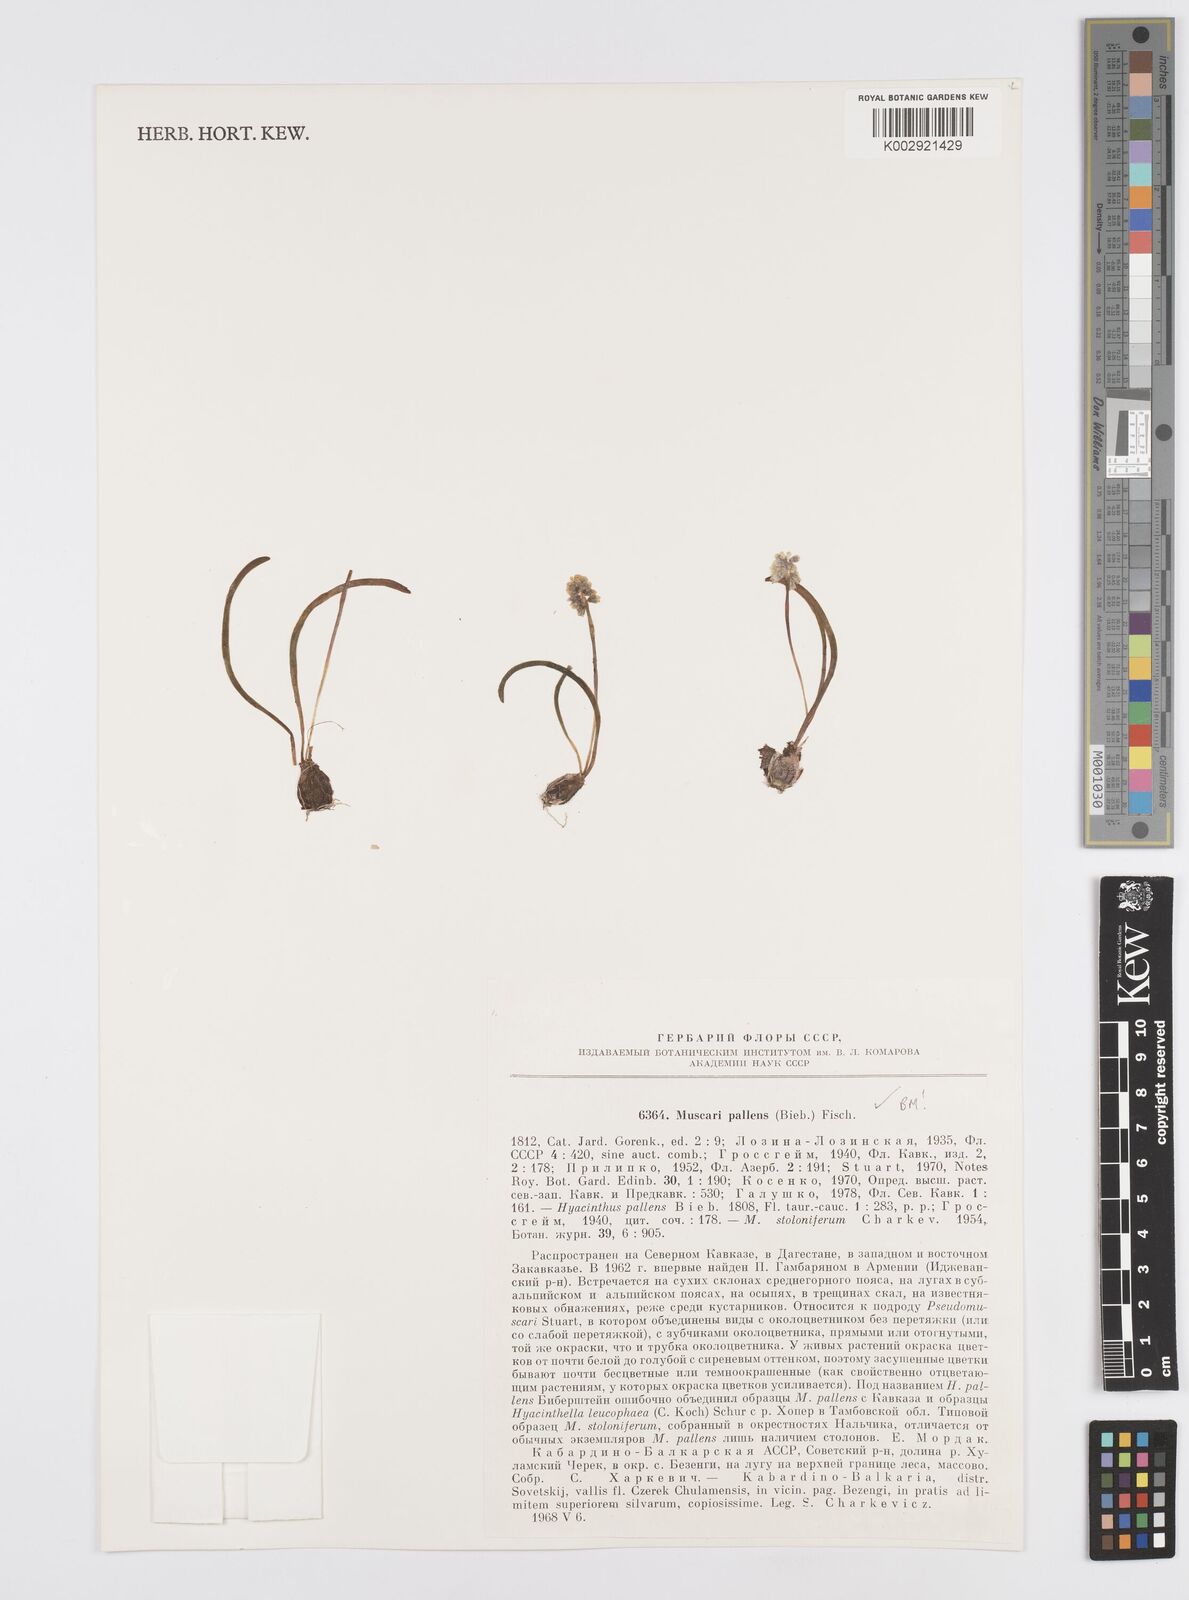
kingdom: Plantae
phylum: Tracheophyta
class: Liliopsida
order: Asparagales
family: Asparagaceae
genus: Muscari
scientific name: Muscari pallens
